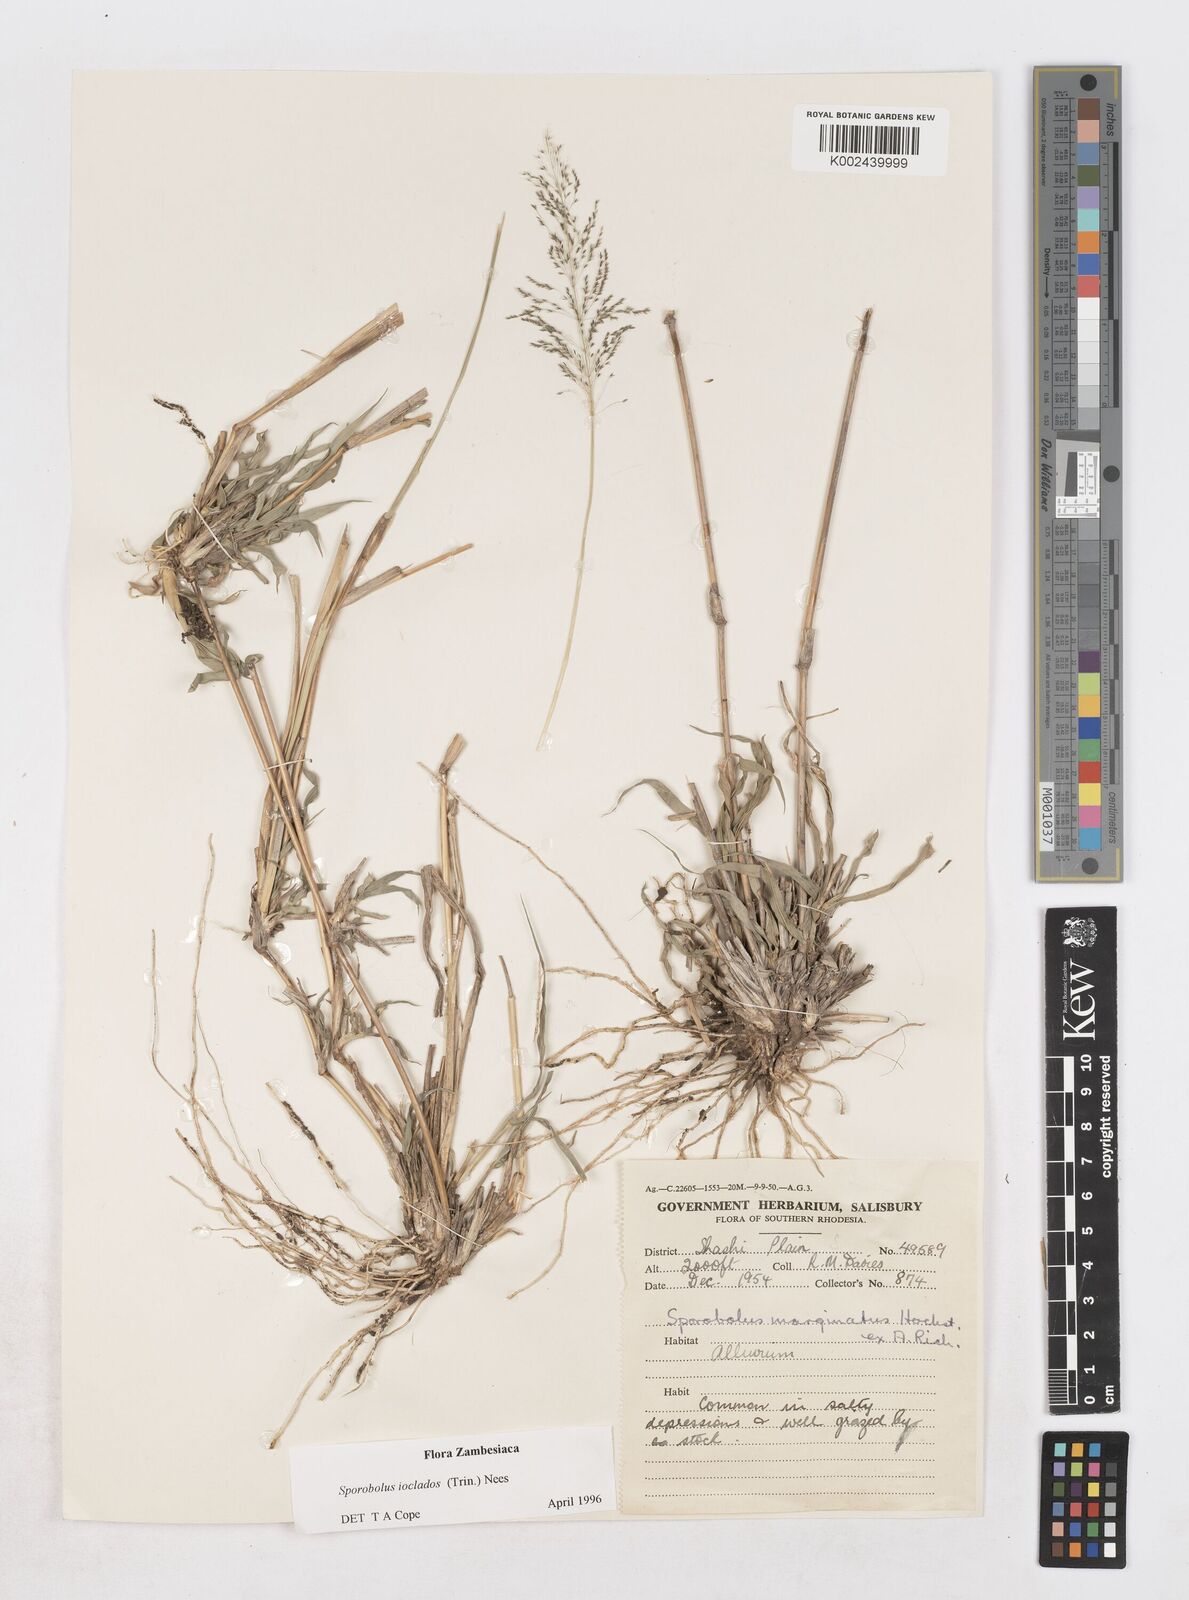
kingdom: Plantae
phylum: Tracheophyta
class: Liliopsida
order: Poales
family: Poaceae
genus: Sporobolus
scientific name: Sporobolus ioclados
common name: Pan dropseed
